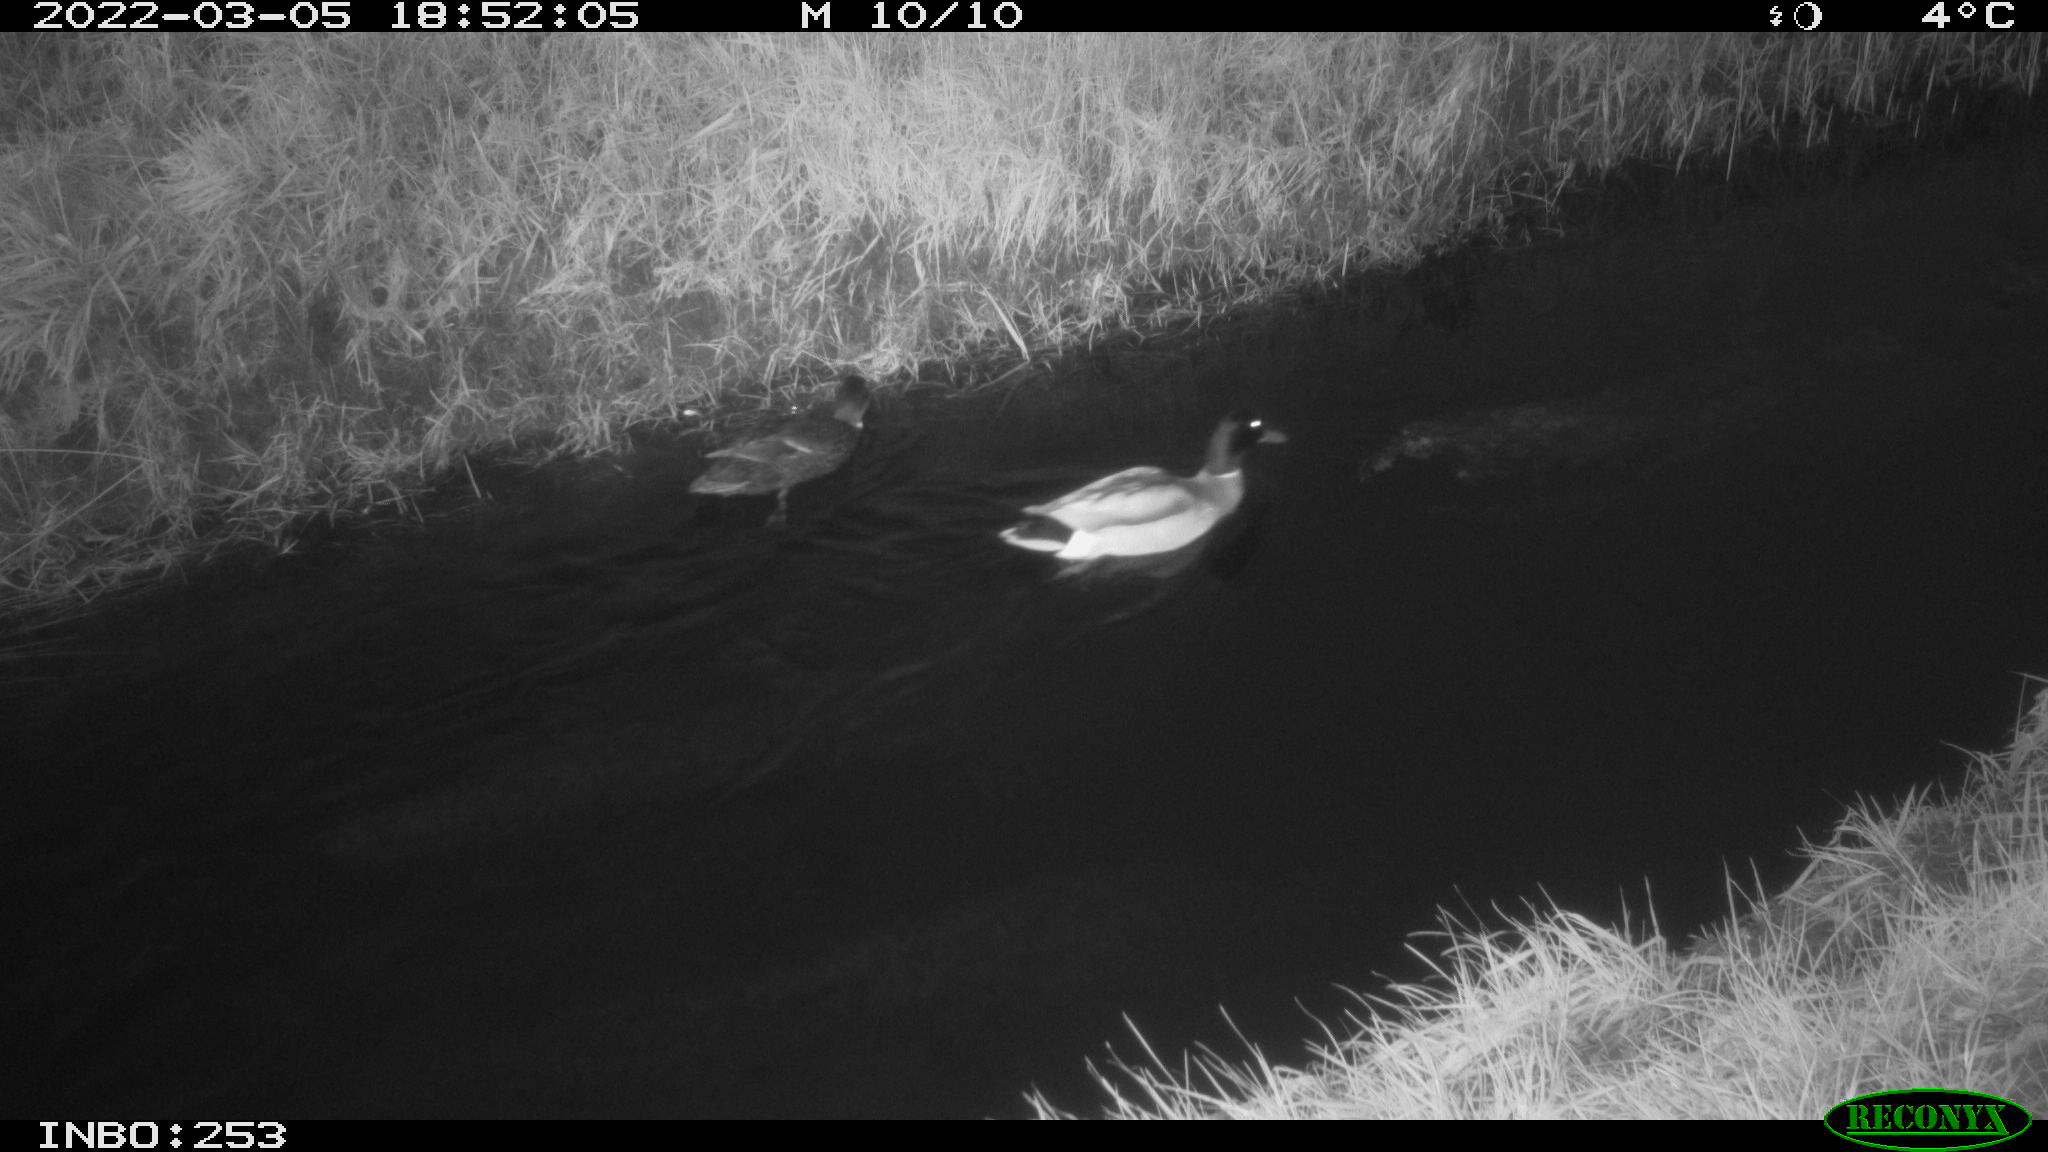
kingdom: Animalia
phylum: Chordata
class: Aves
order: Anseriformes
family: Anatidae
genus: Anas
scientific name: Anas platyrhynchos
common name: Mallard
